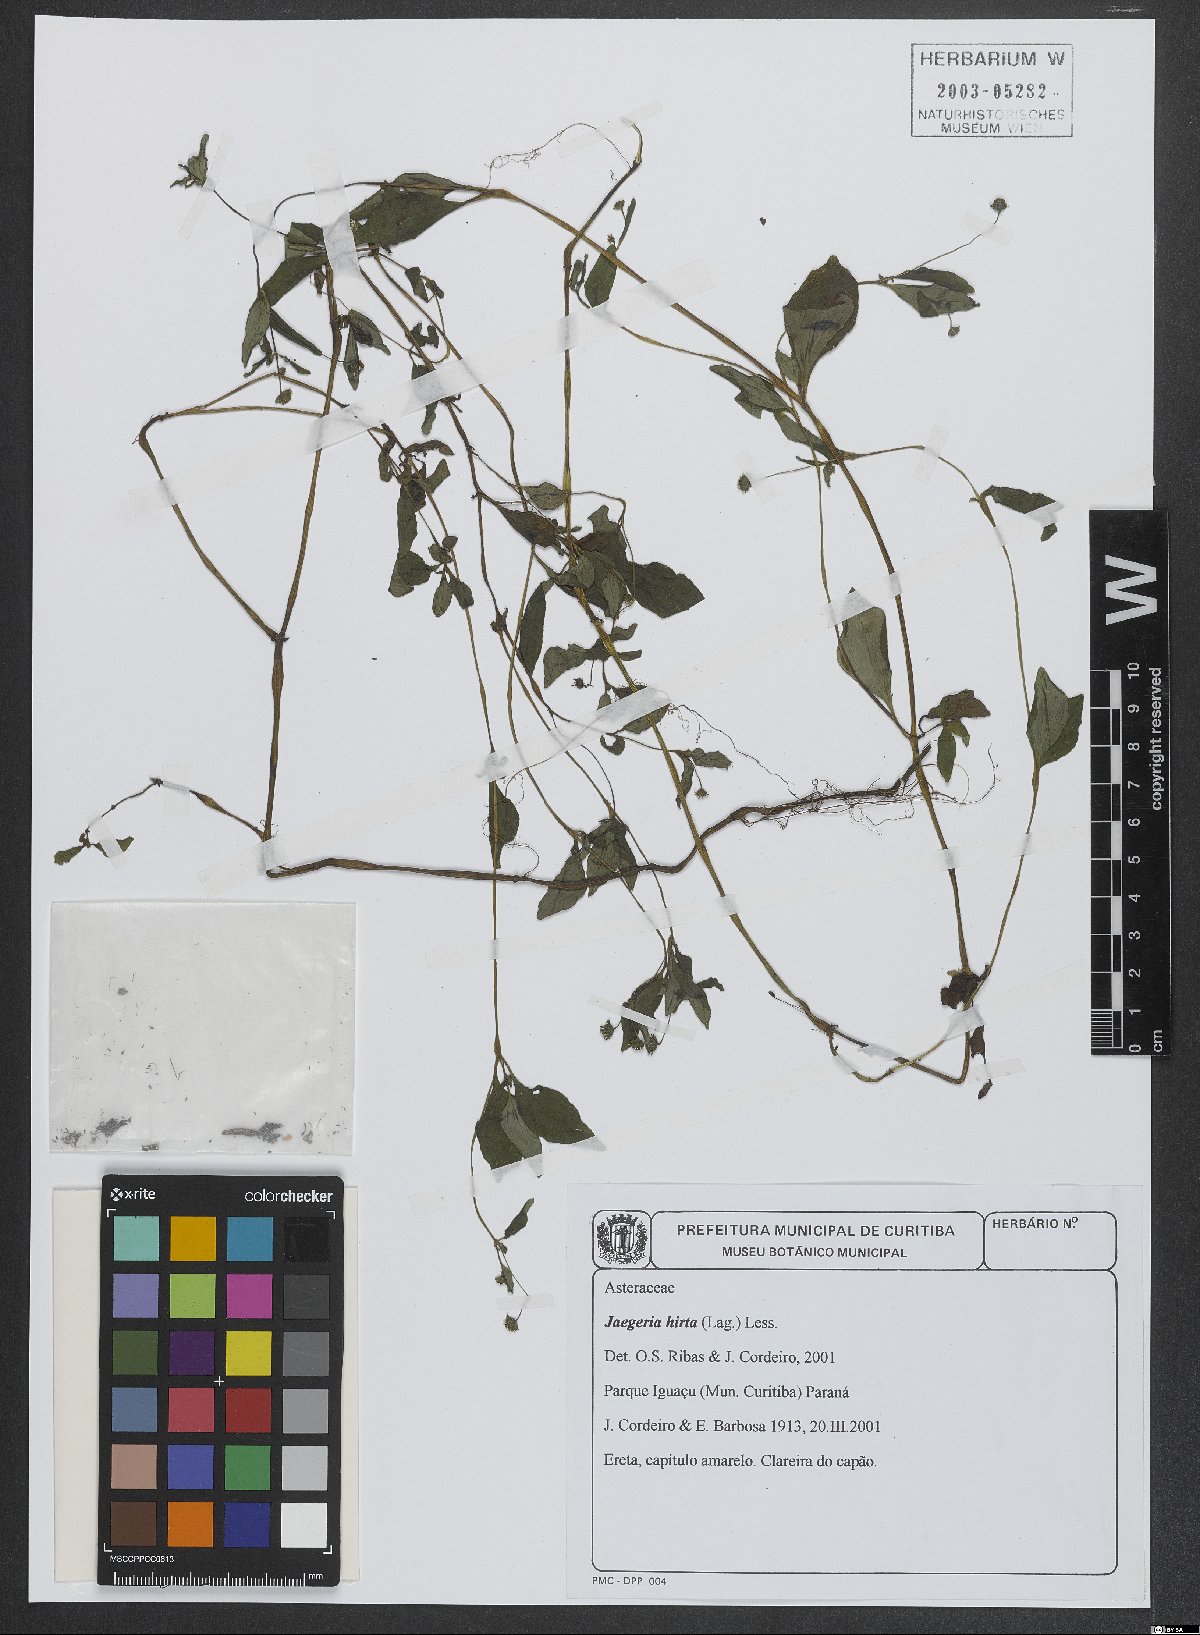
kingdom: Plantae
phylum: Tracheophyta
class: Magnoliopsida
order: Asterales
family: Asteraceae
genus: Jaegeria
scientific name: Jaegeria hirta
